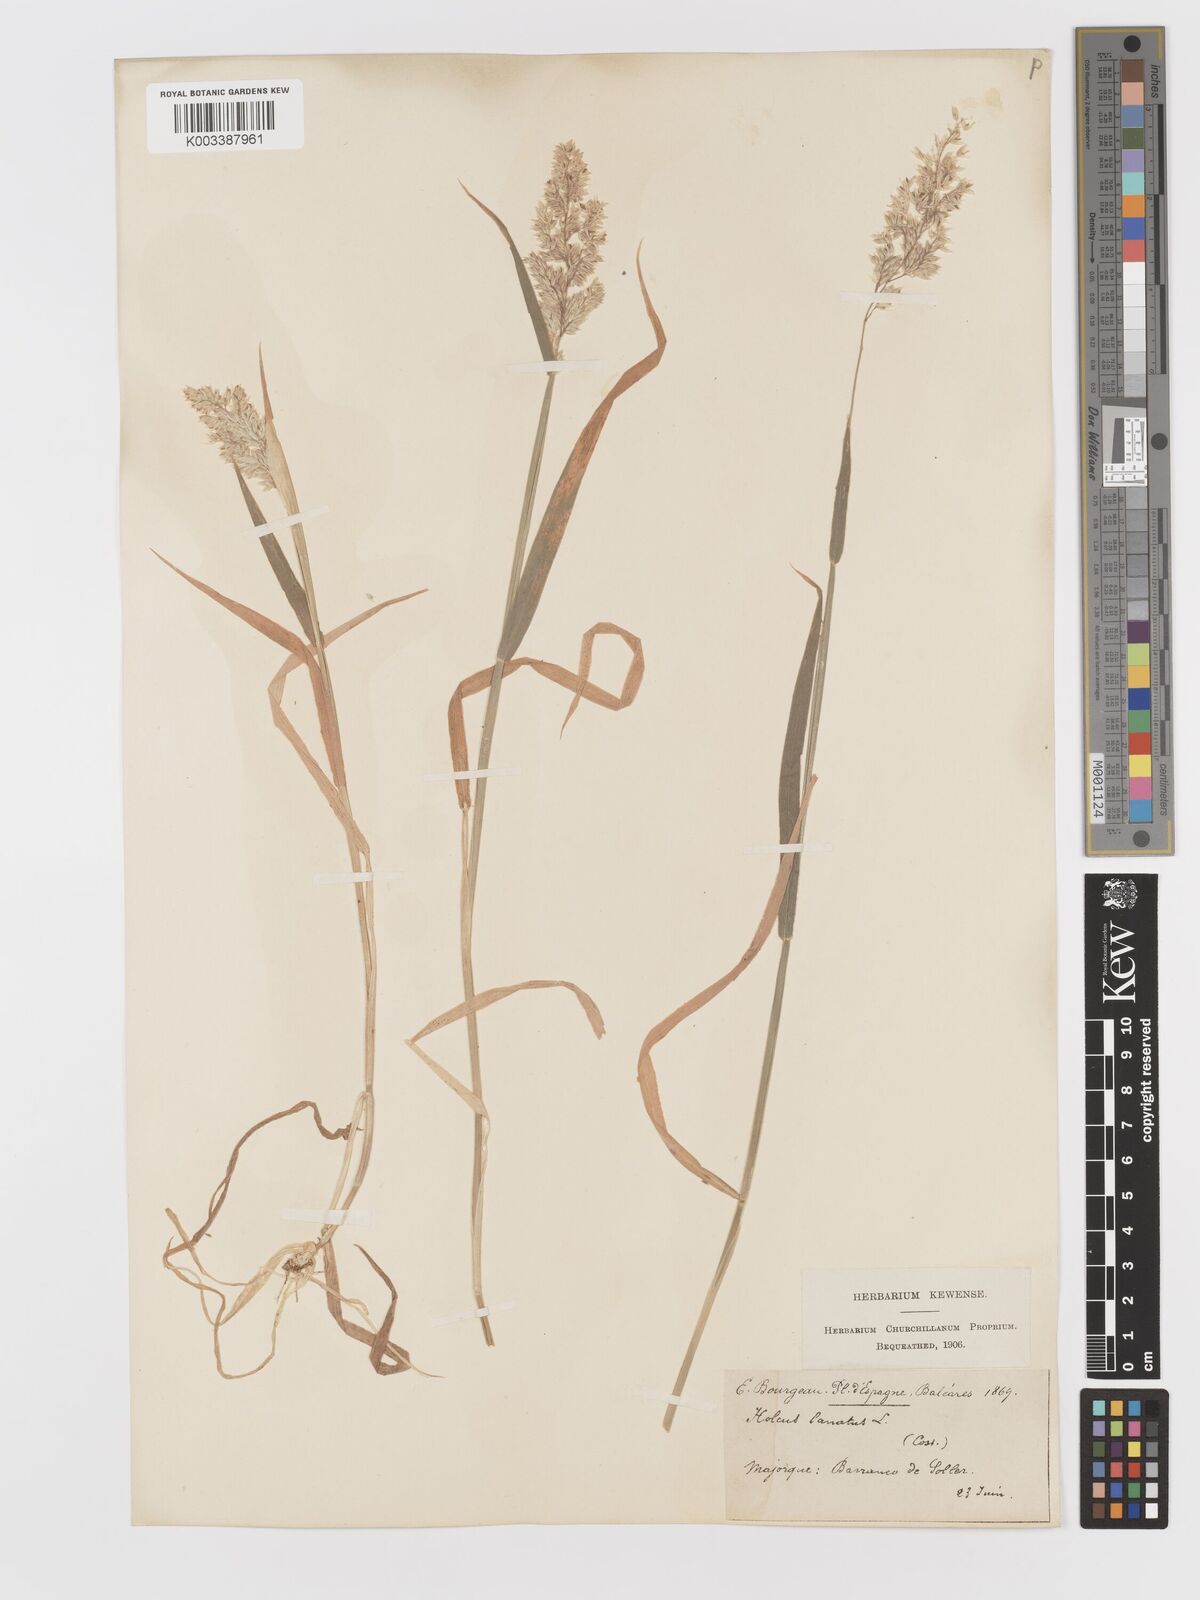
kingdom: Plantae
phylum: Tracheophyta
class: Liliopsida
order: Poales
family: Poaceae
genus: Holcus
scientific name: Holcus lanatus
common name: Yorkshire-fog
